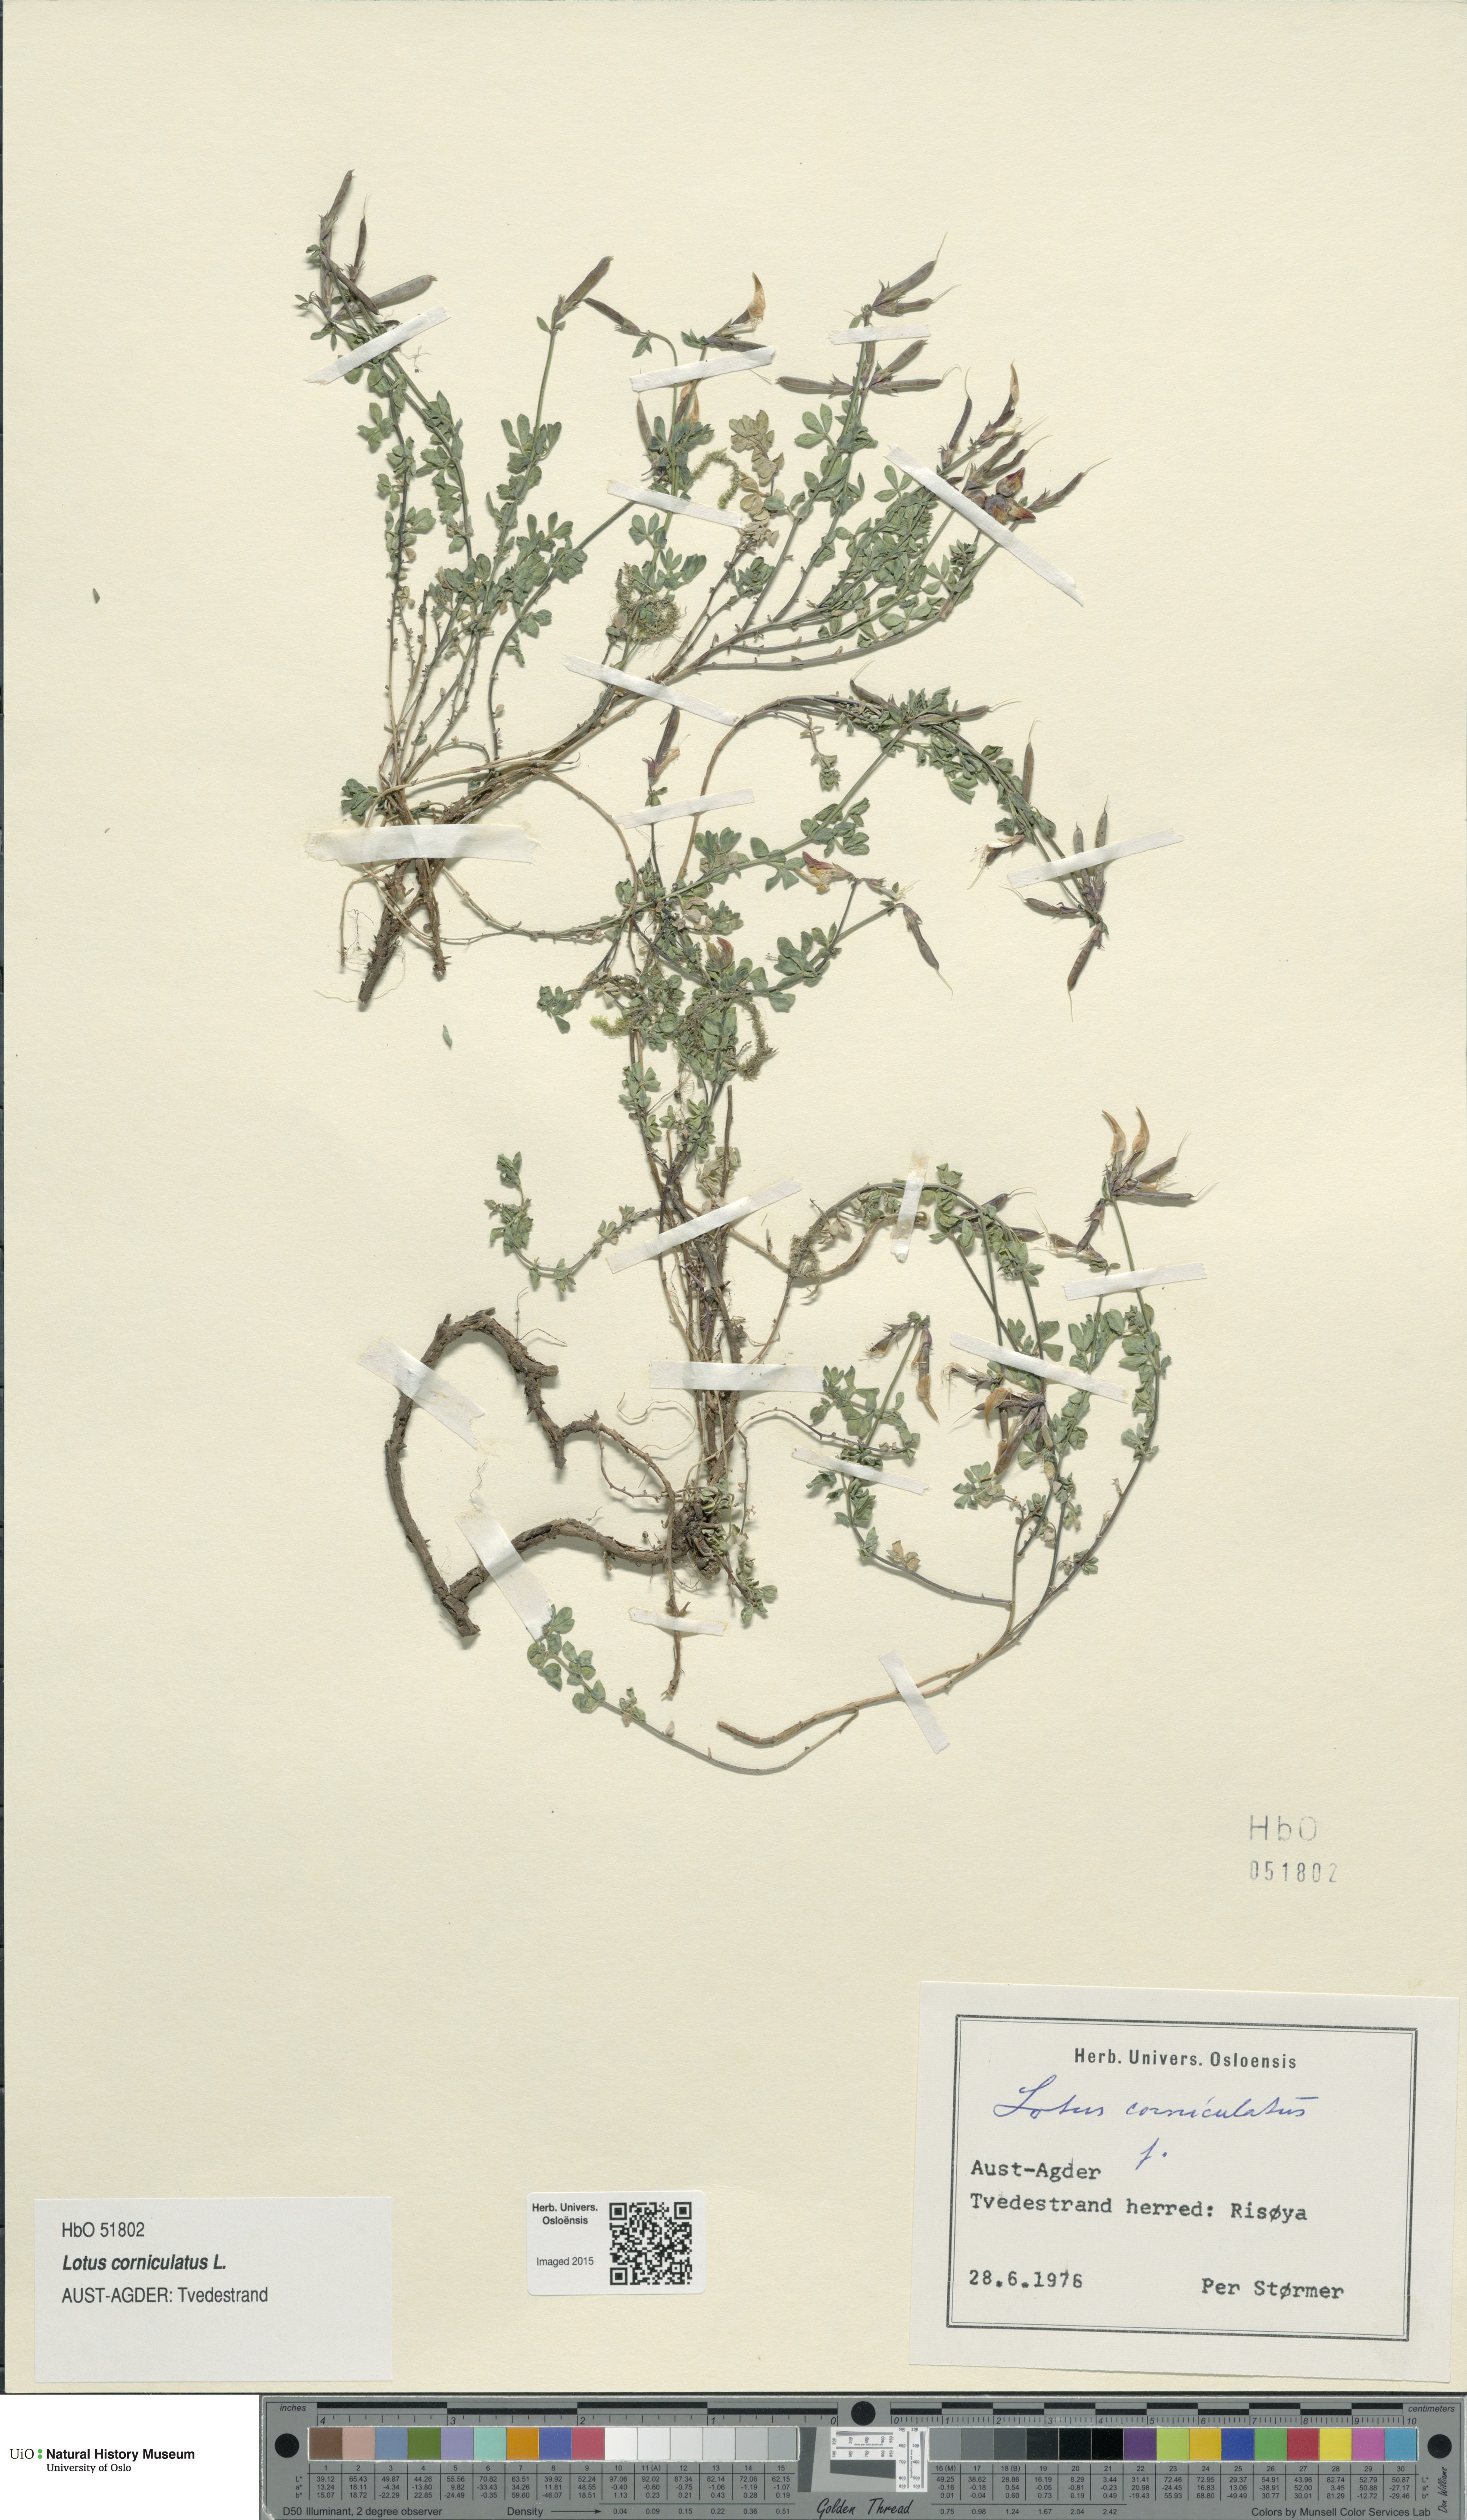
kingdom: Plantae
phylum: Tracheophyta
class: Magnoliopsida
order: Fabales
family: Fabaceae
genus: Lotus
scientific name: Lotus corniculatus
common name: Common bird's-foot-trefoil
